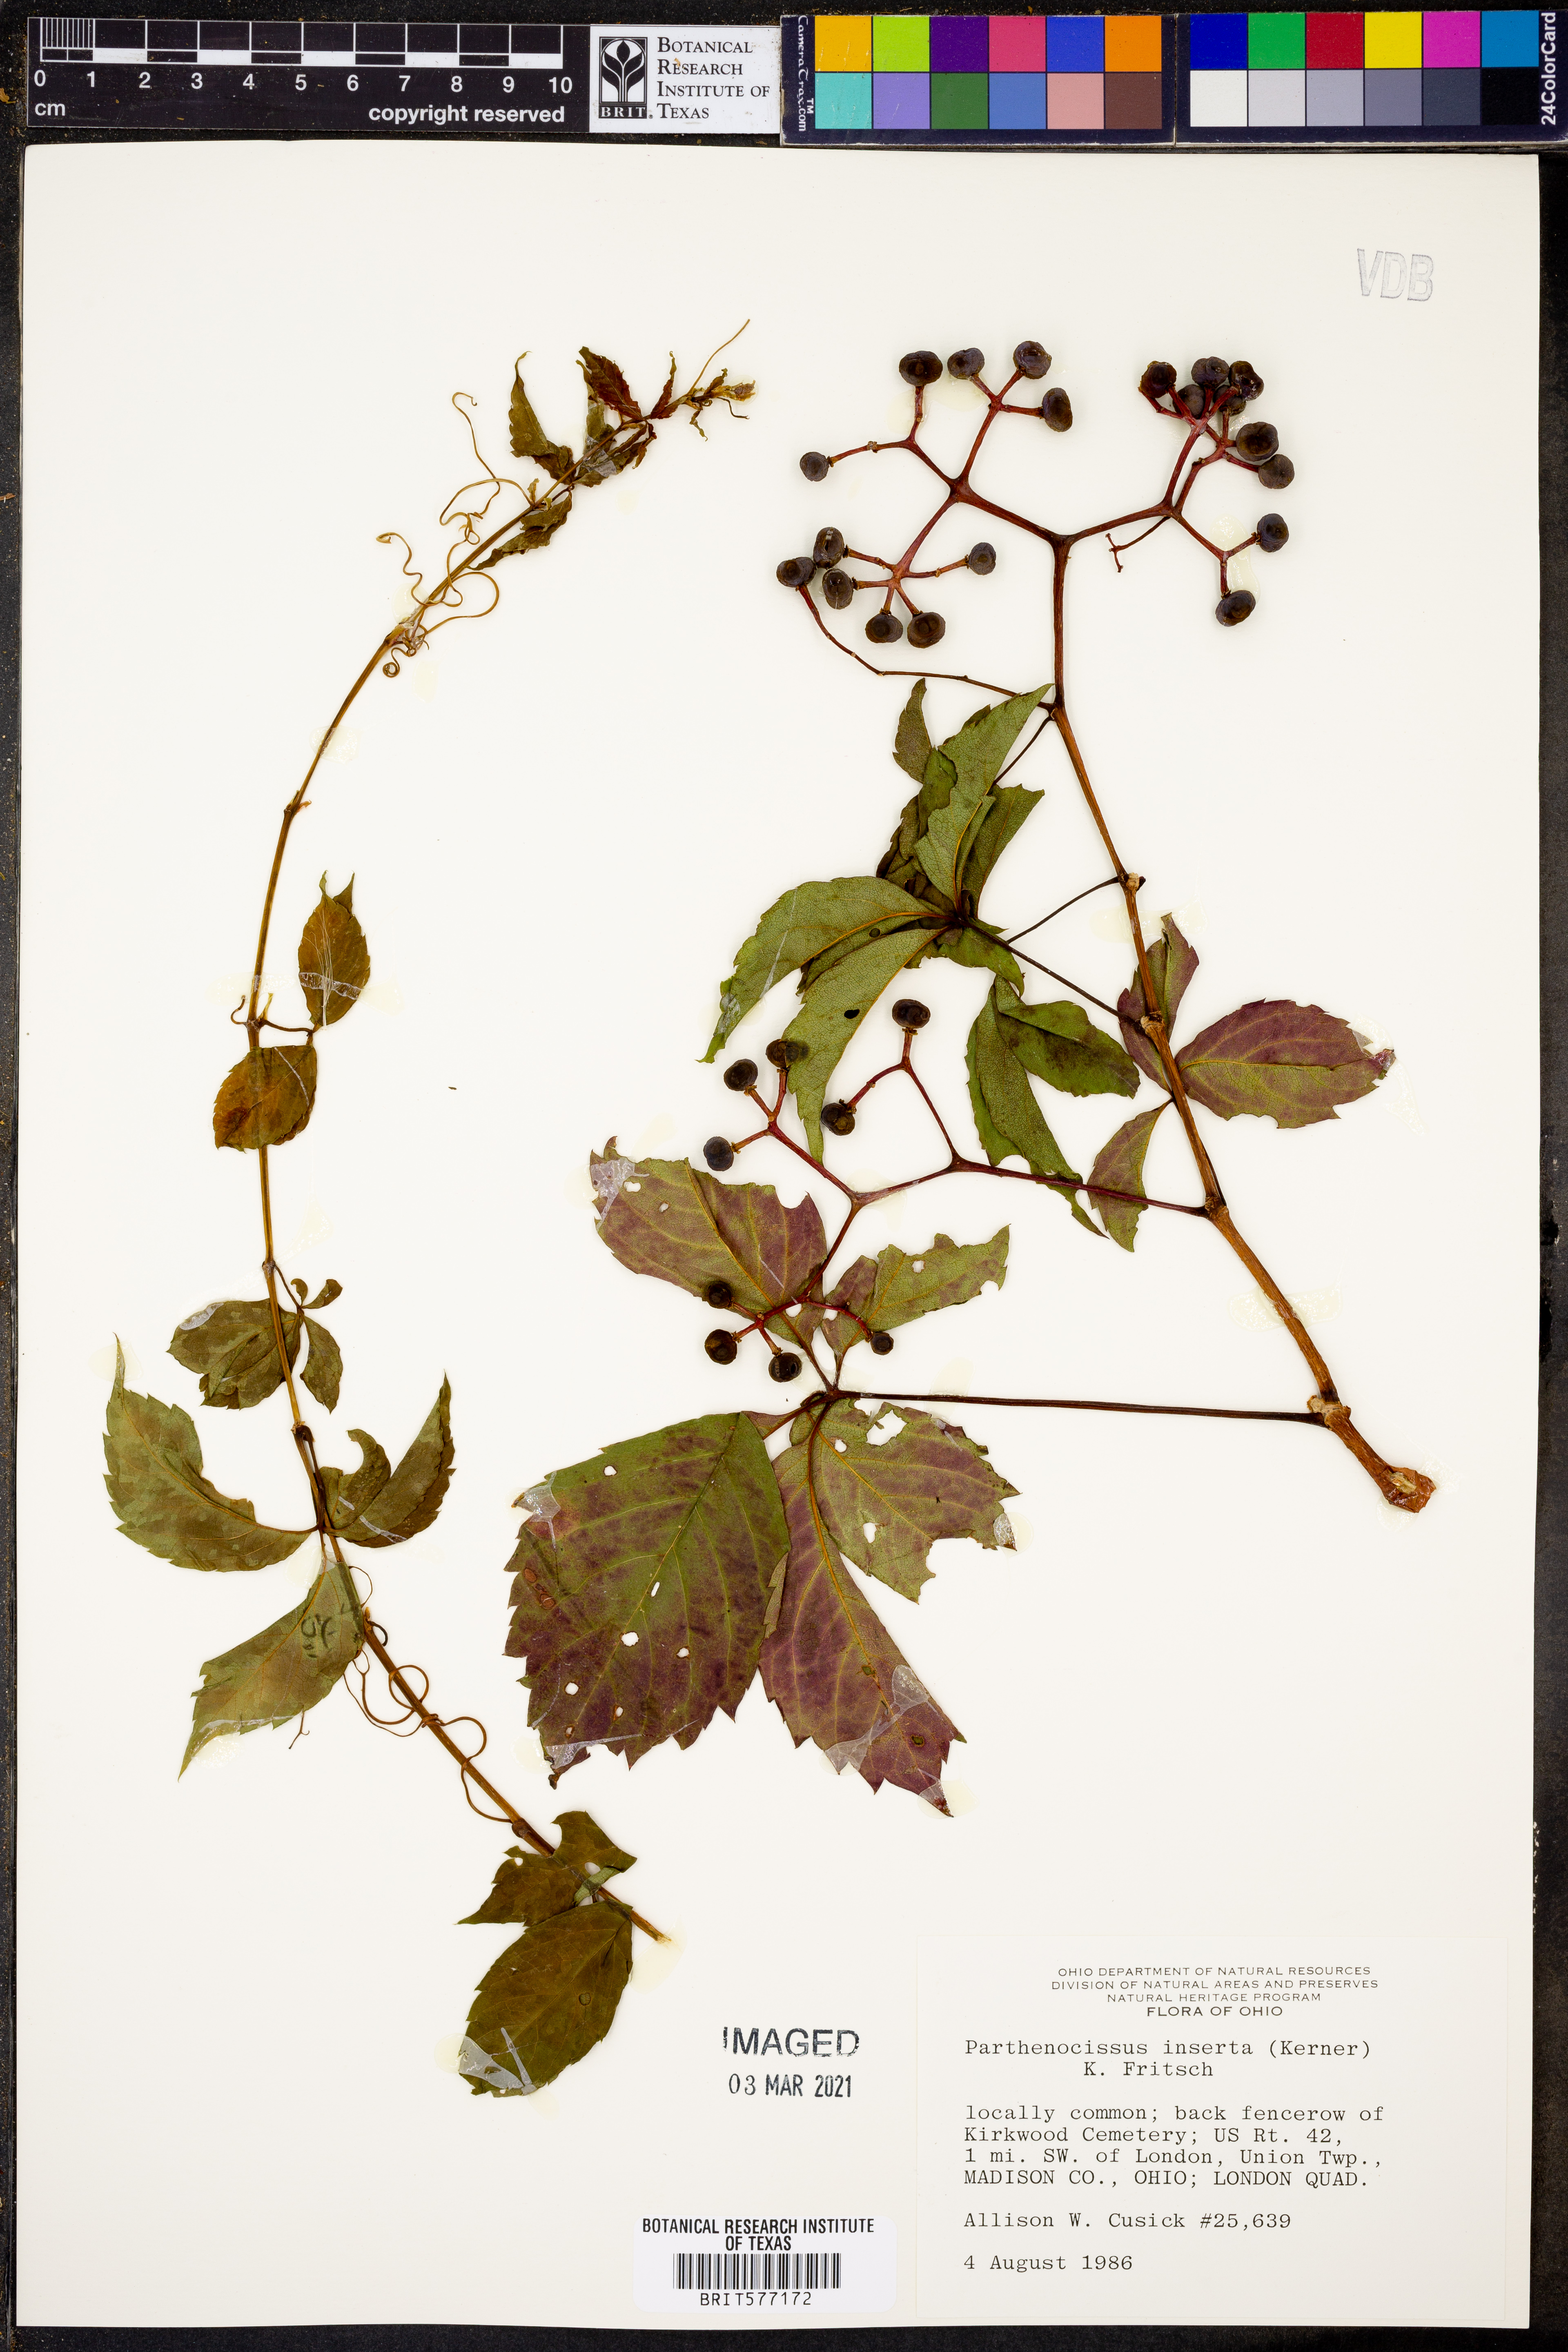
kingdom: Plantae
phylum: Tracheophyta
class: Magnoliopsida
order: Vitales
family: Vitaceae
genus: Parthenocissus
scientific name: Parthenocissus inserta
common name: False virginia-creeper
